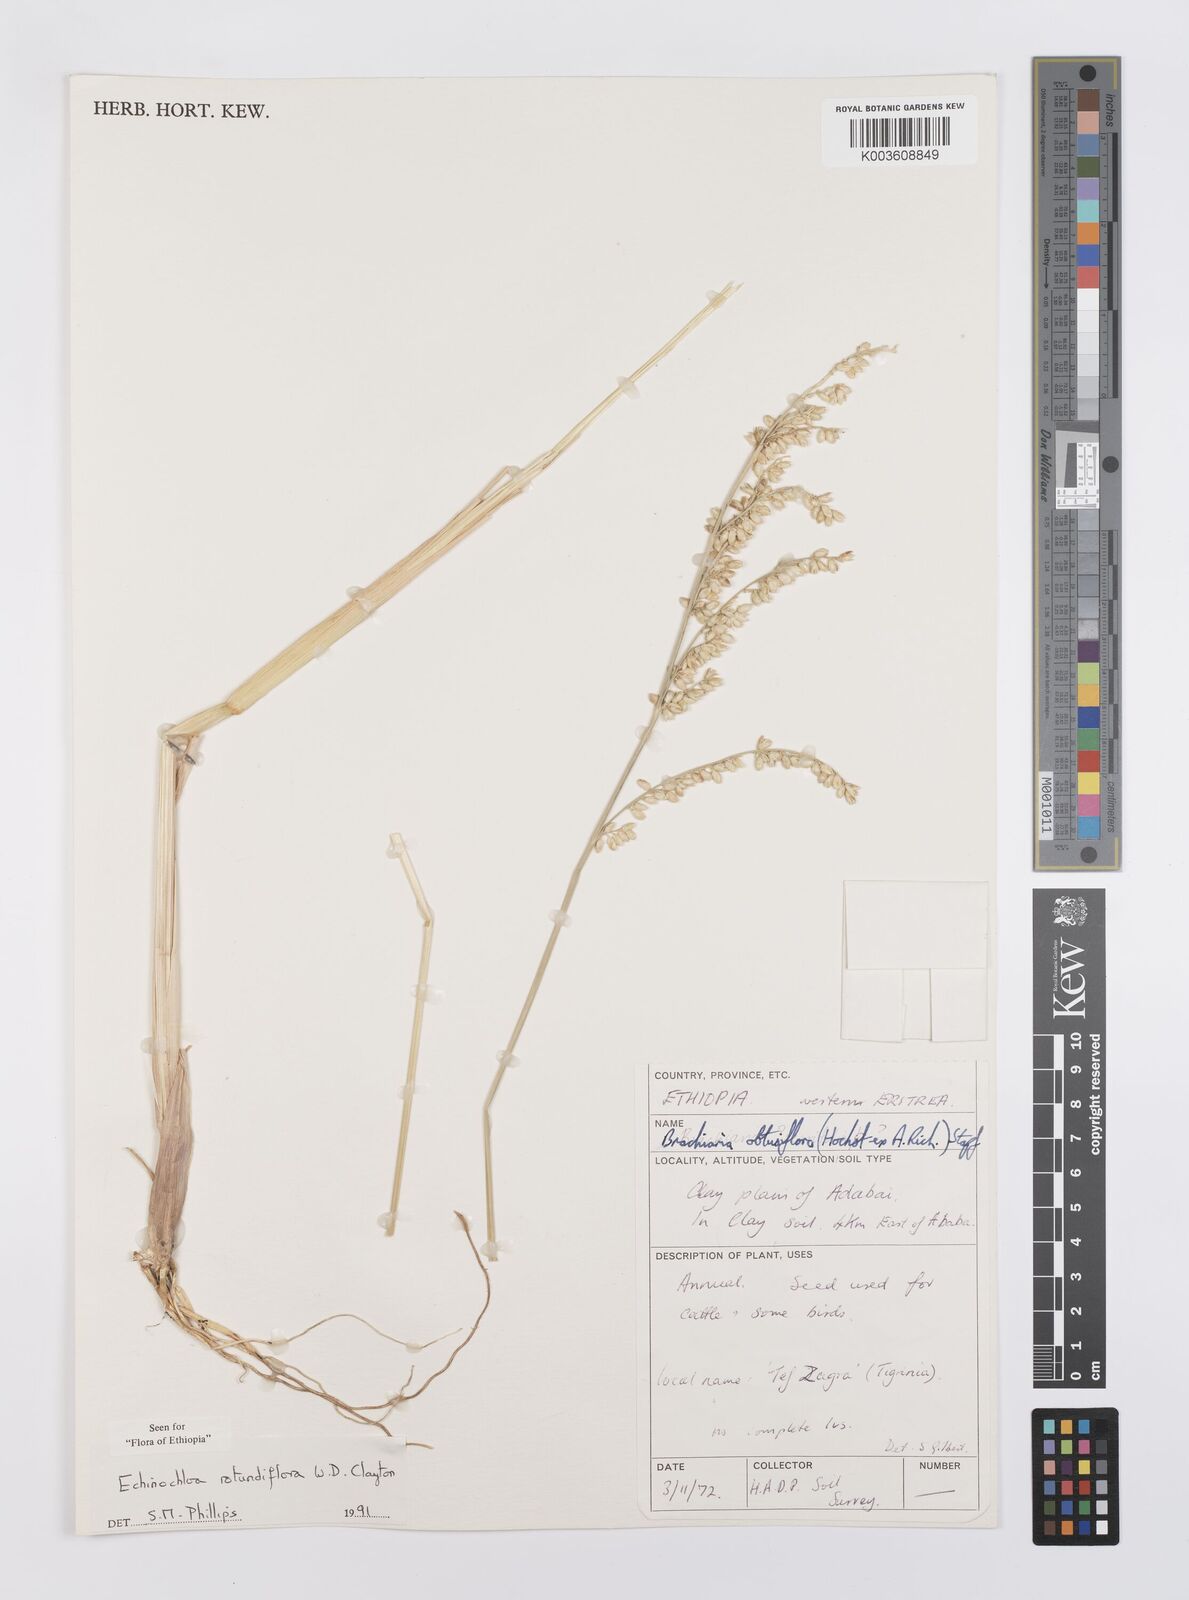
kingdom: Plantae
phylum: Tracheophyta
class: Liliopsida
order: Poales
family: Poaceae
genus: Echinochloa
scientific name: Echinochloa rotundiflora
